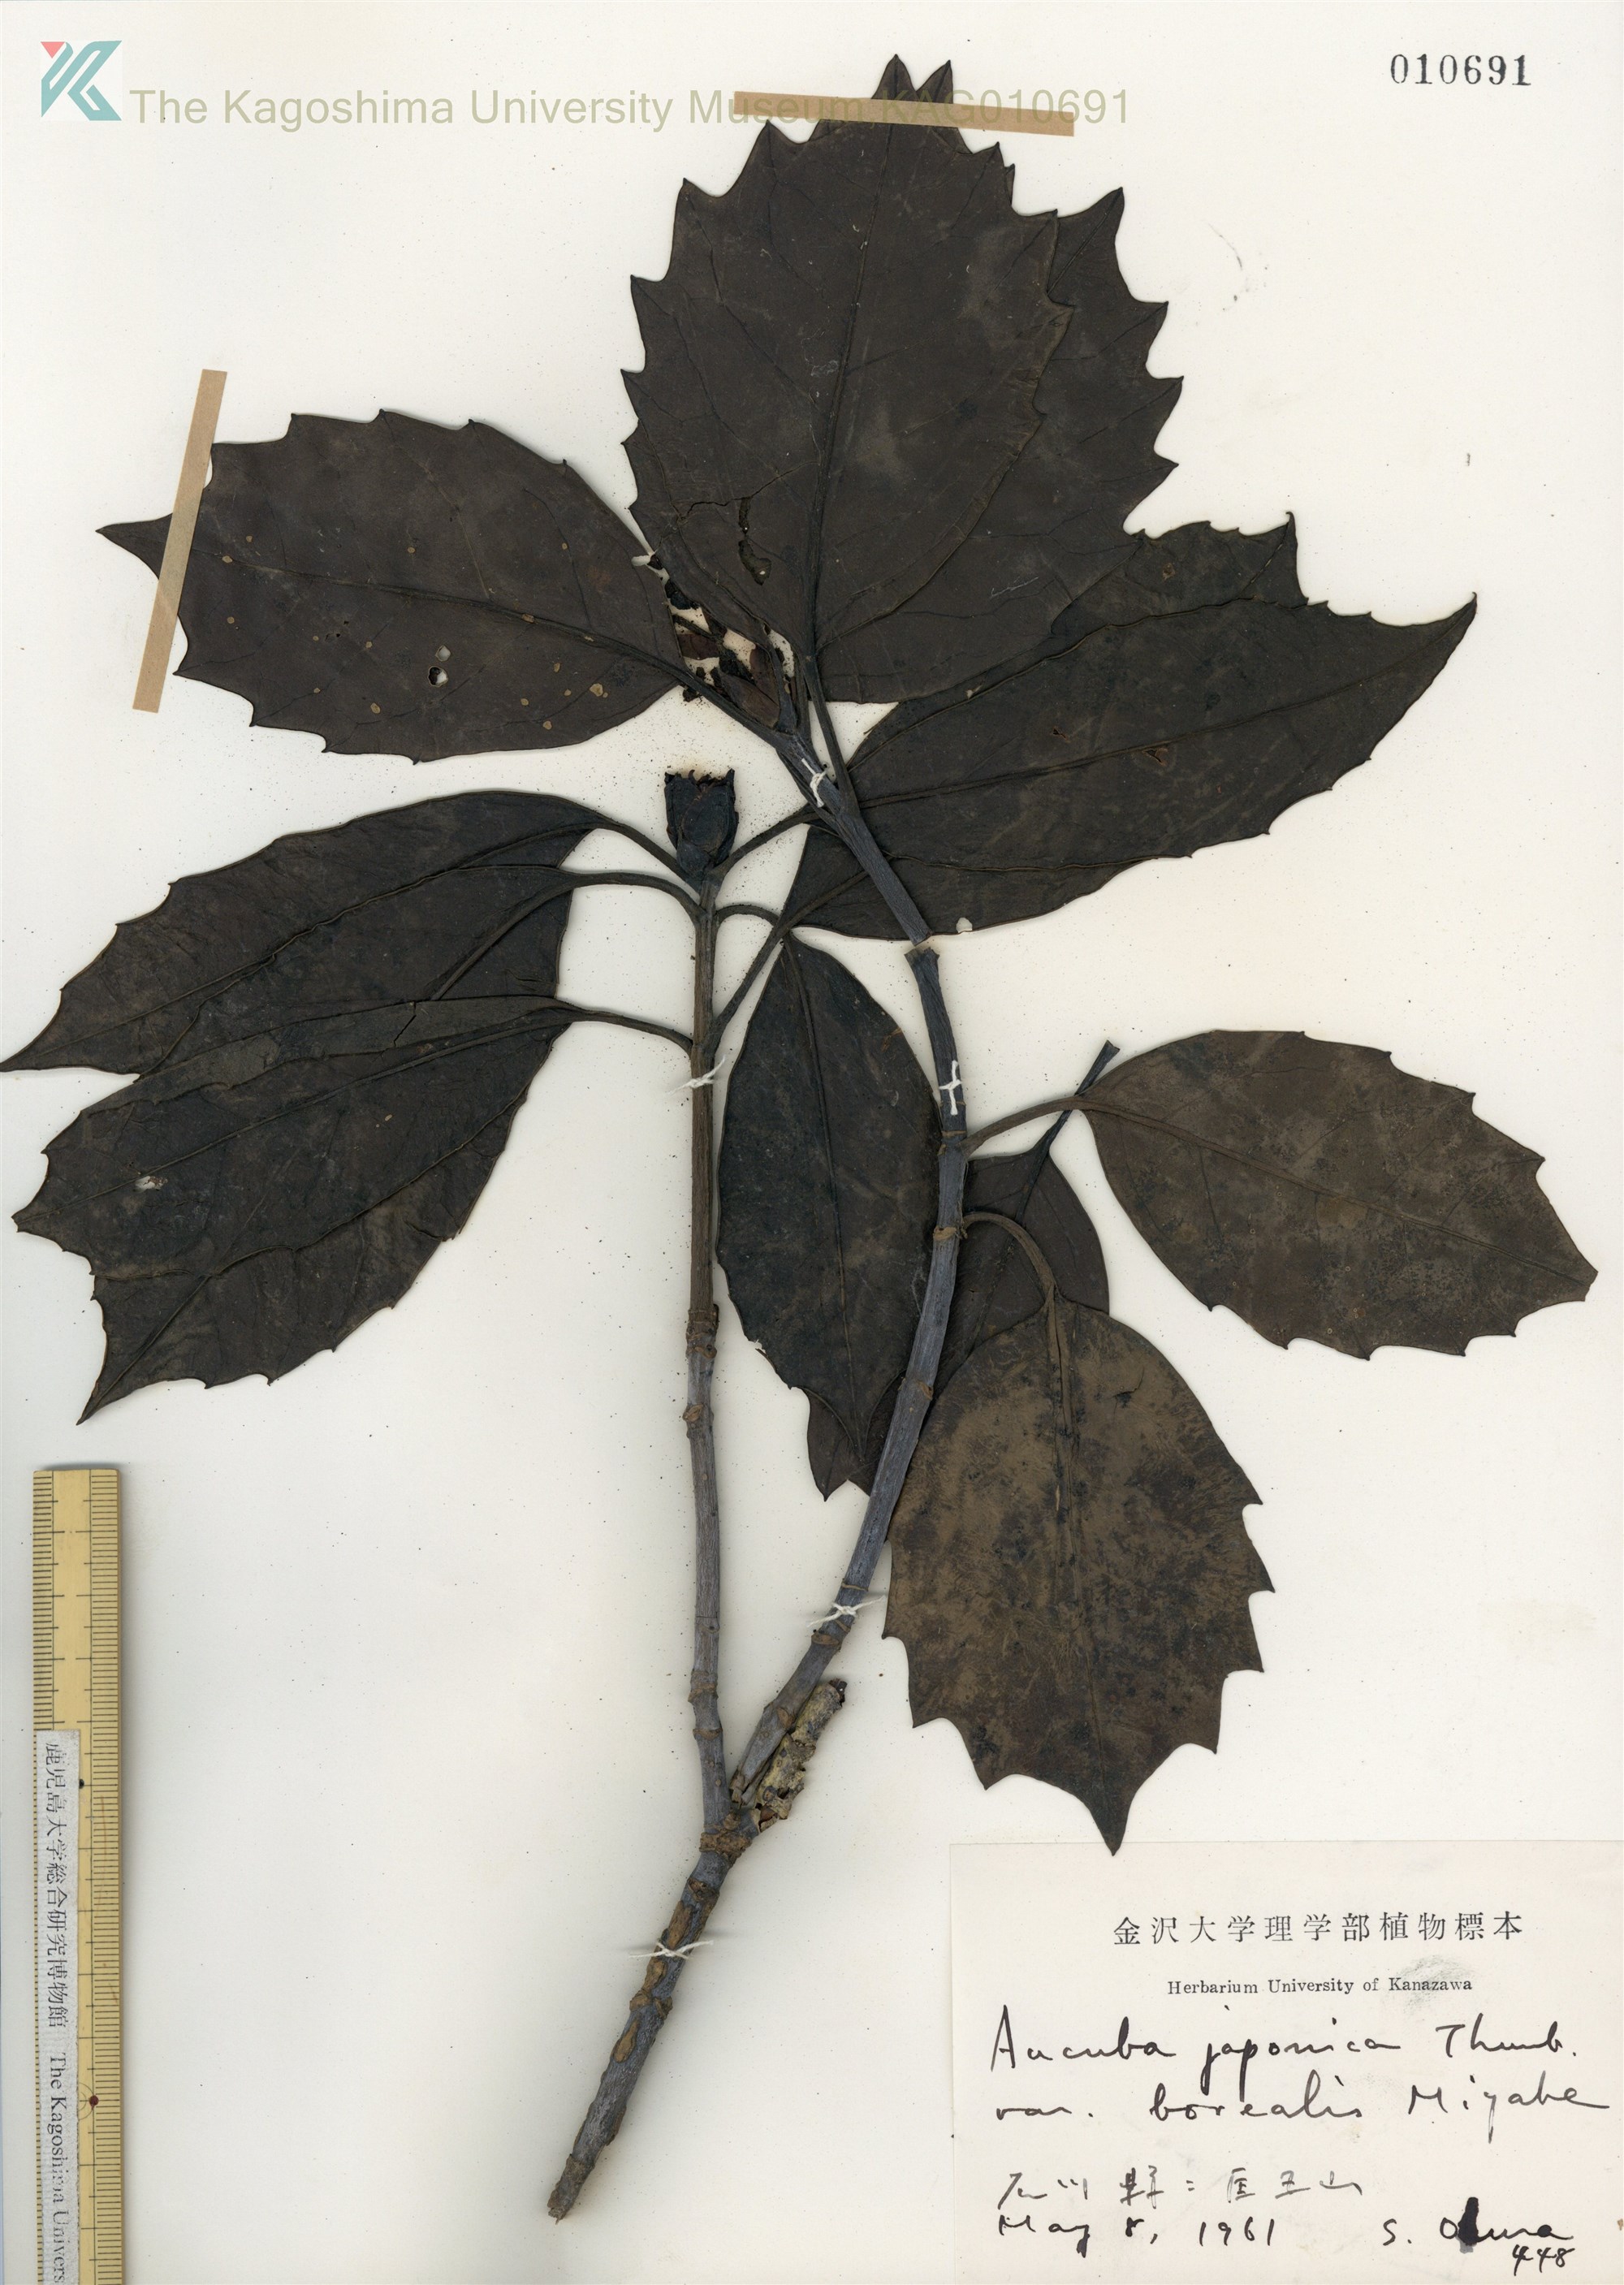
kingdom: Plantae
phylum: Tracheophyta
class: Magnoliopsida
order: Garryales
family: Garryaceae
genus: Aucuba
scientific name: Aucuba japonica
